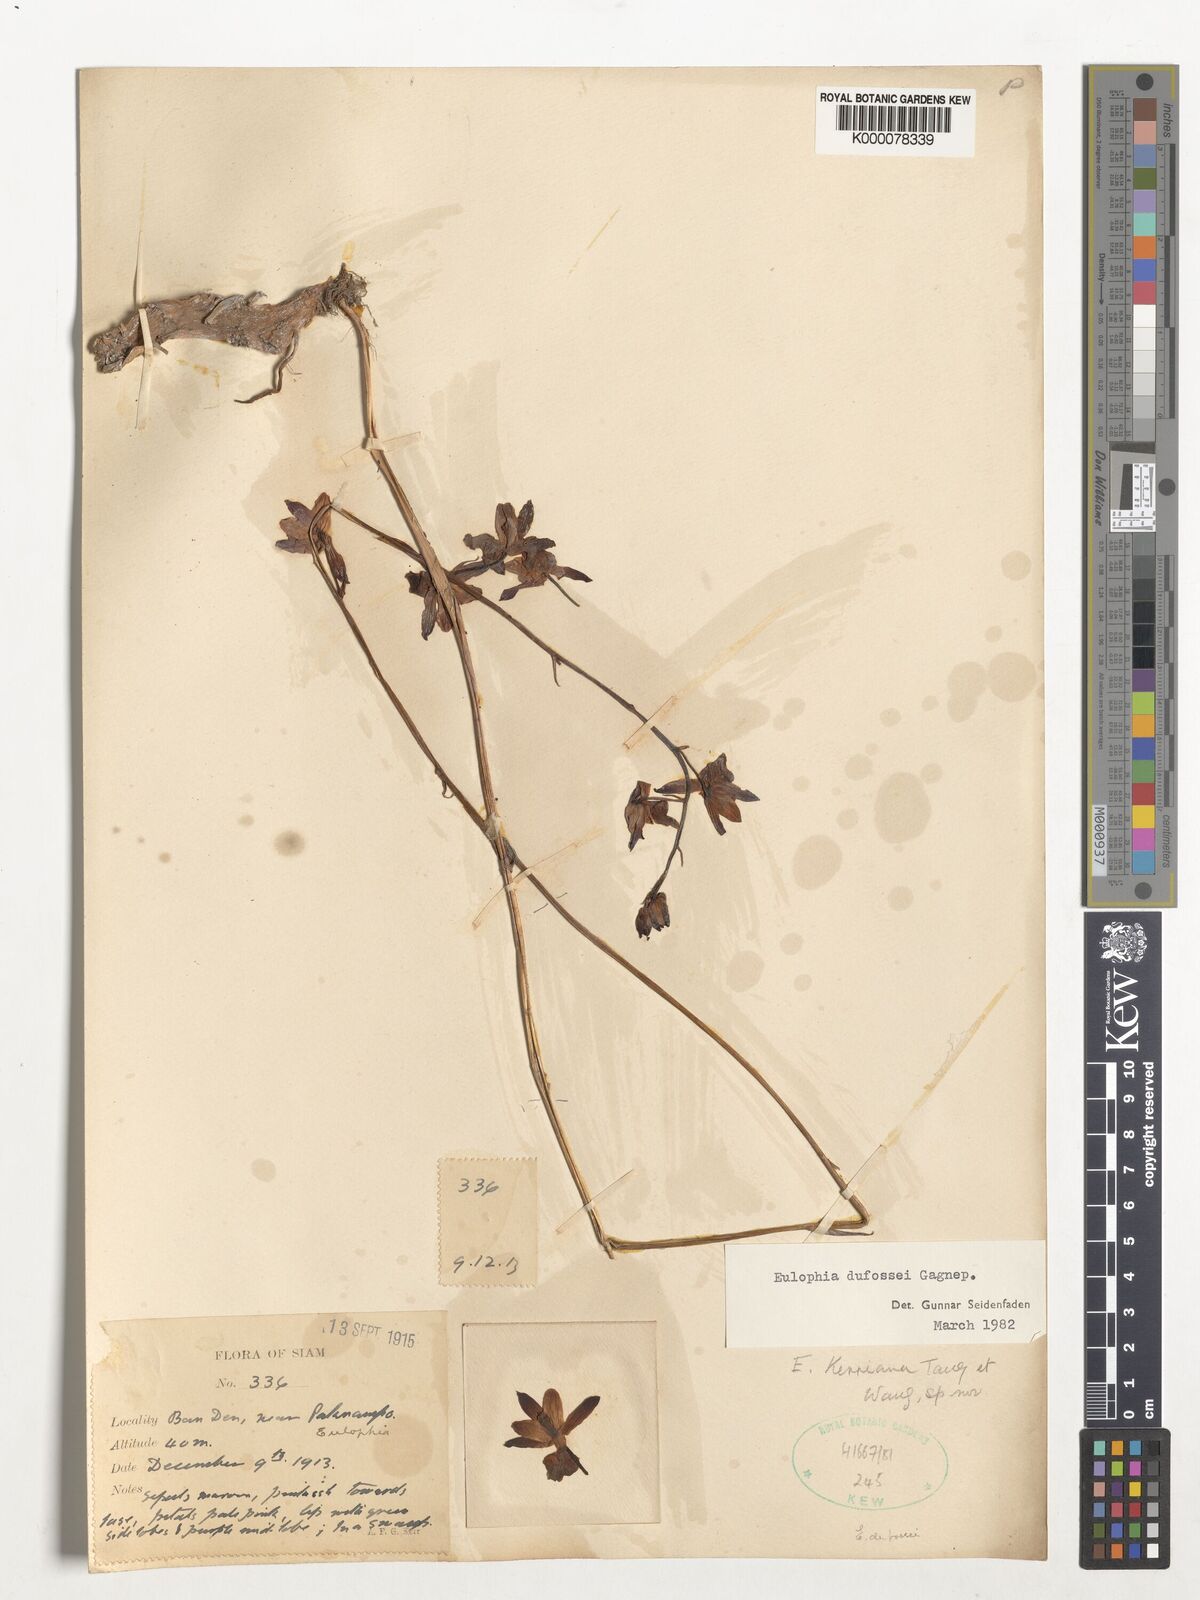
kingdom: Plantae
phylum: Tracheophyta
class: Liliopsida
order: Asparagales
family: Orchidaceae
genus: Eulophia
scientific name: Eulophia dufossei
